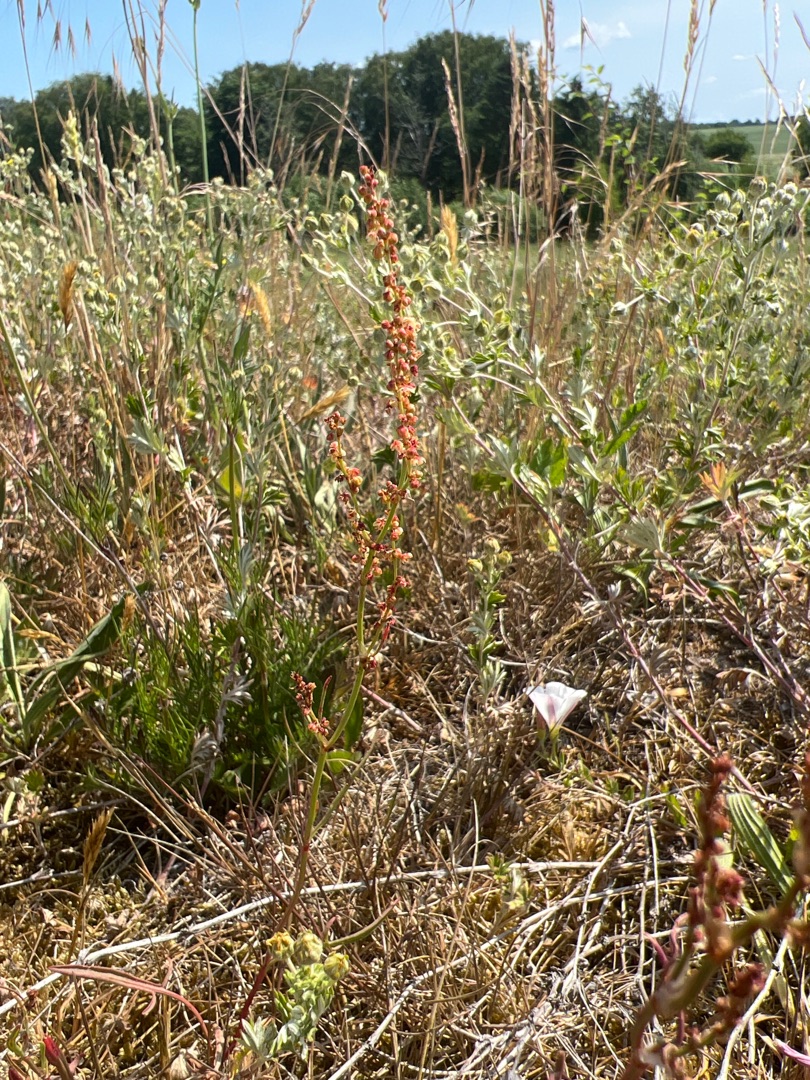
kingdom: Plantae
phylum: Tracheophyta
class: Magnoliopsida
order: Caryophyllales
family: Polygonaceae
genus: Rumex
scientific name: Rumex acetosella
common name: Rødknæ
